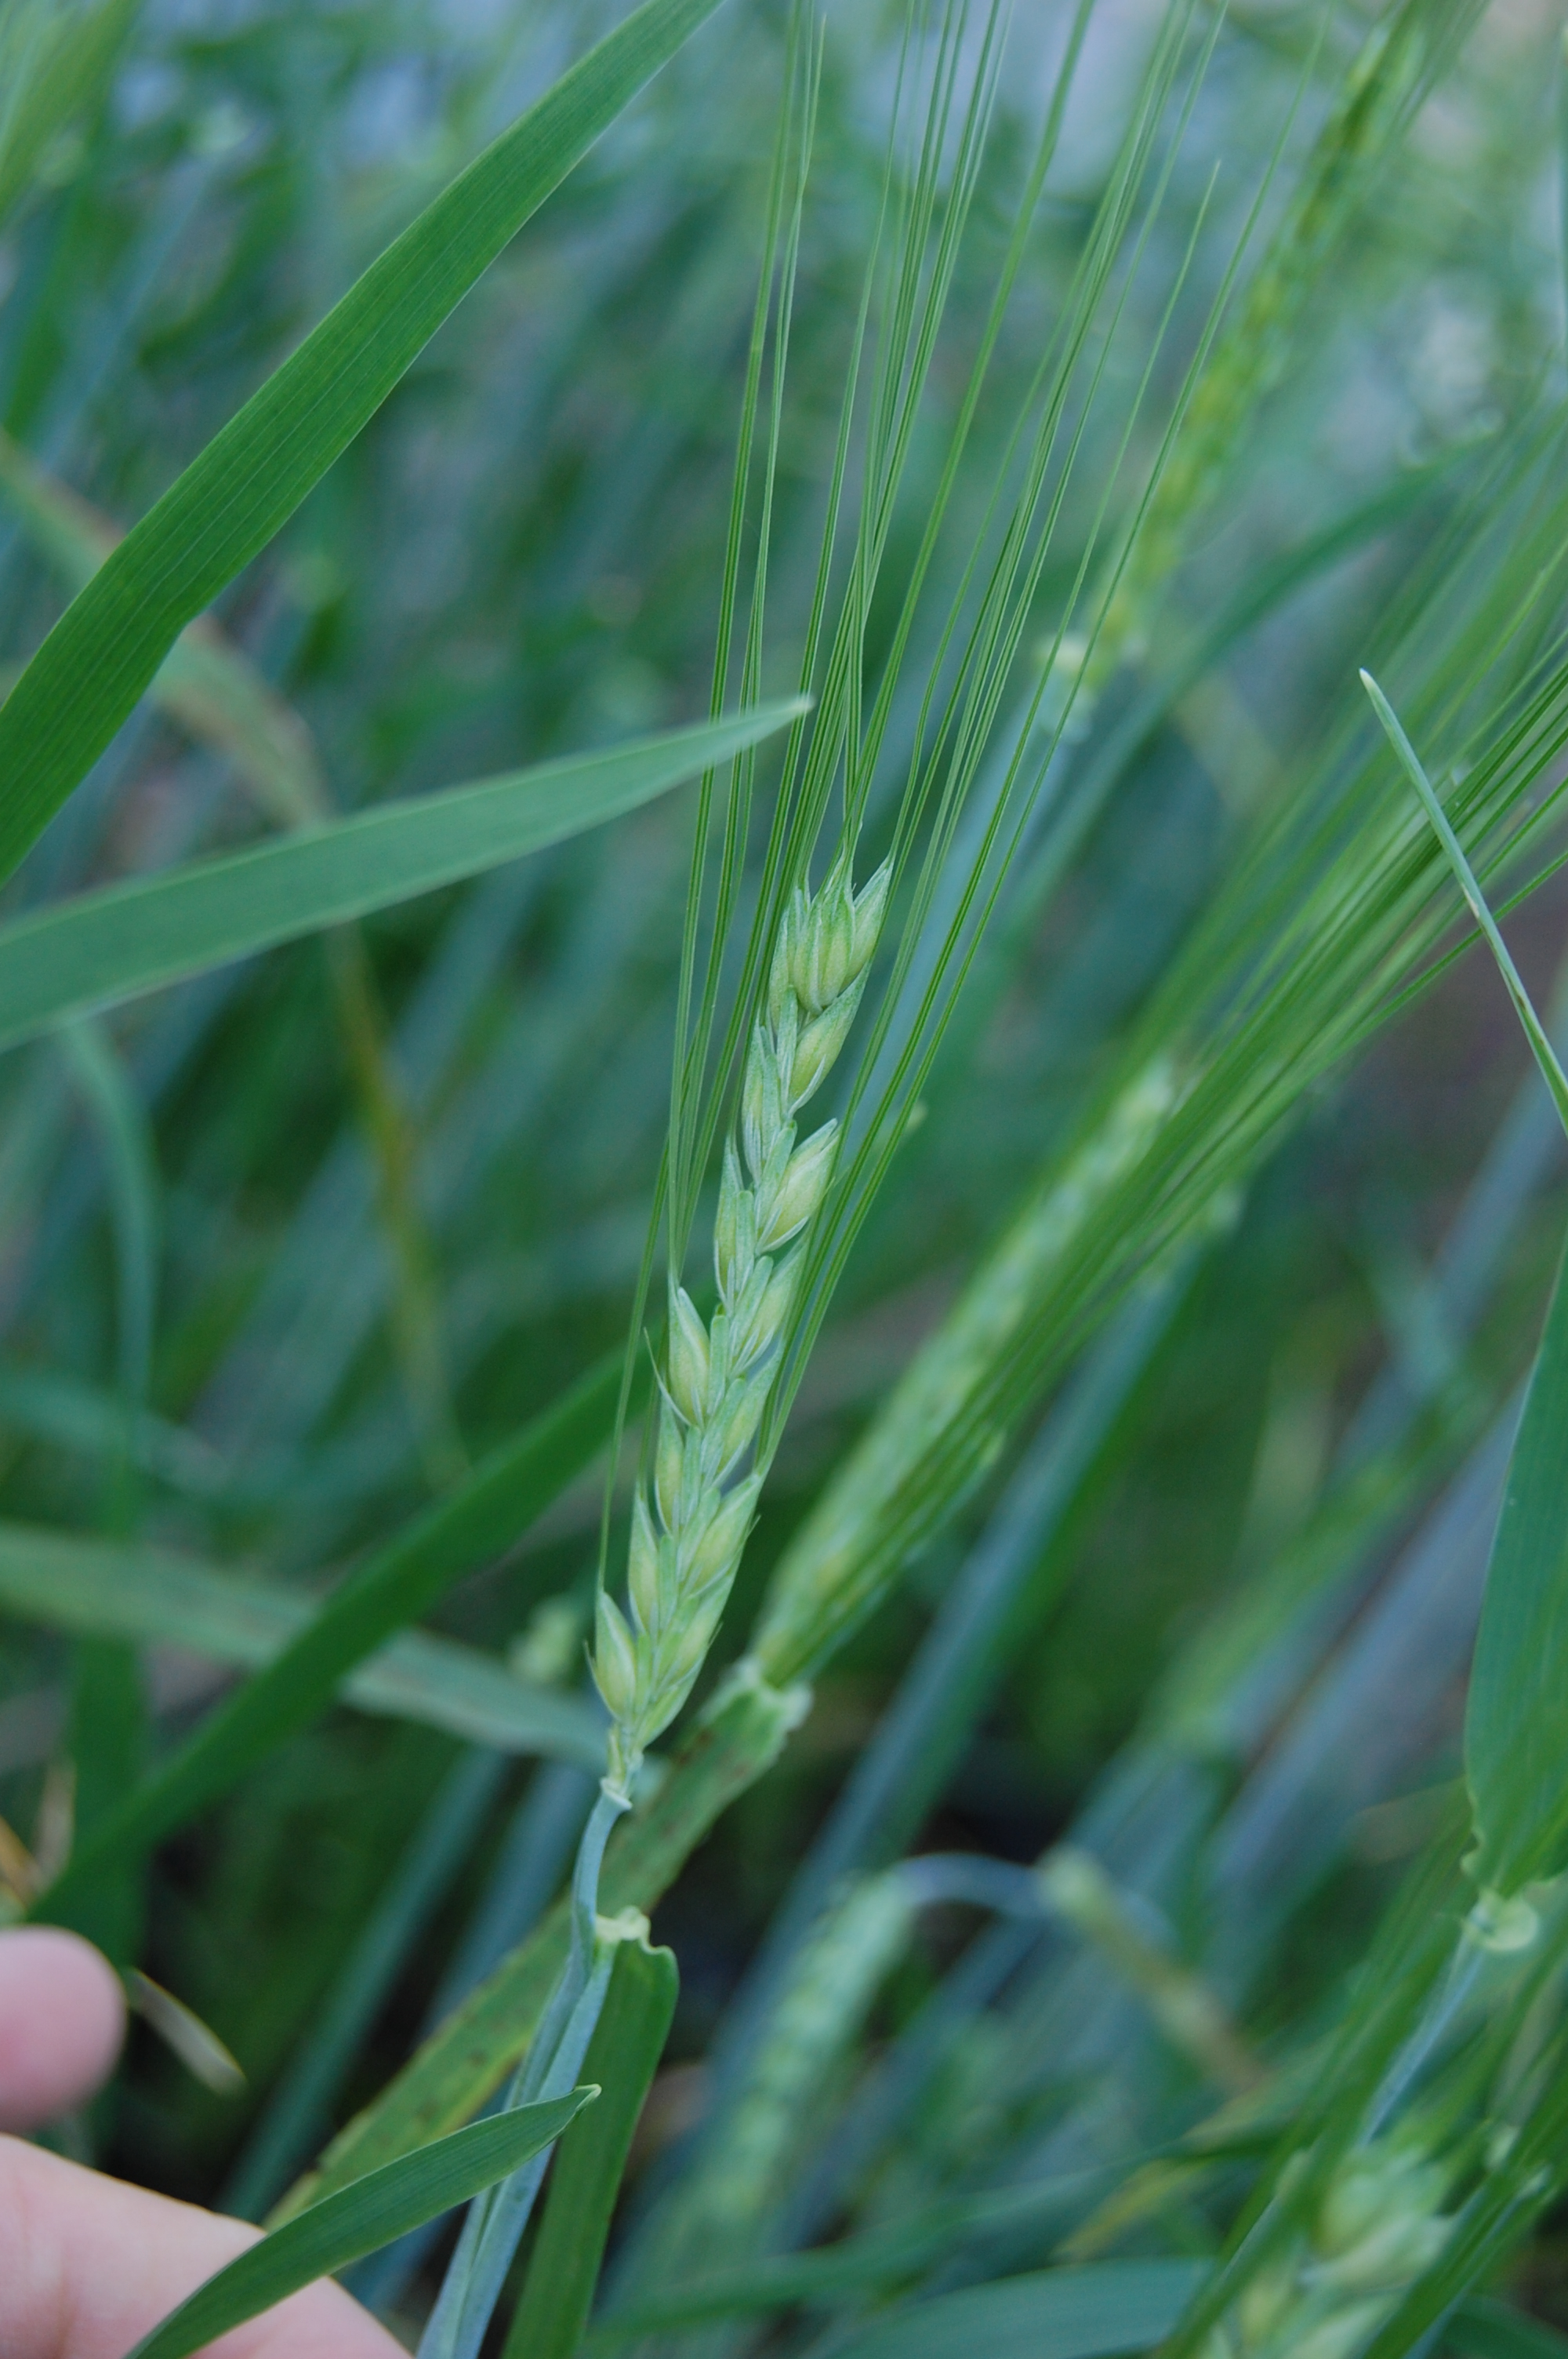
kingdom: Plantae
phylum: Tracheophyta
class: Liliopsida
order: Poales
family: Poaceae
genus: Hordeum
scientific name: Hordeum vulgare
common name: Common barley
